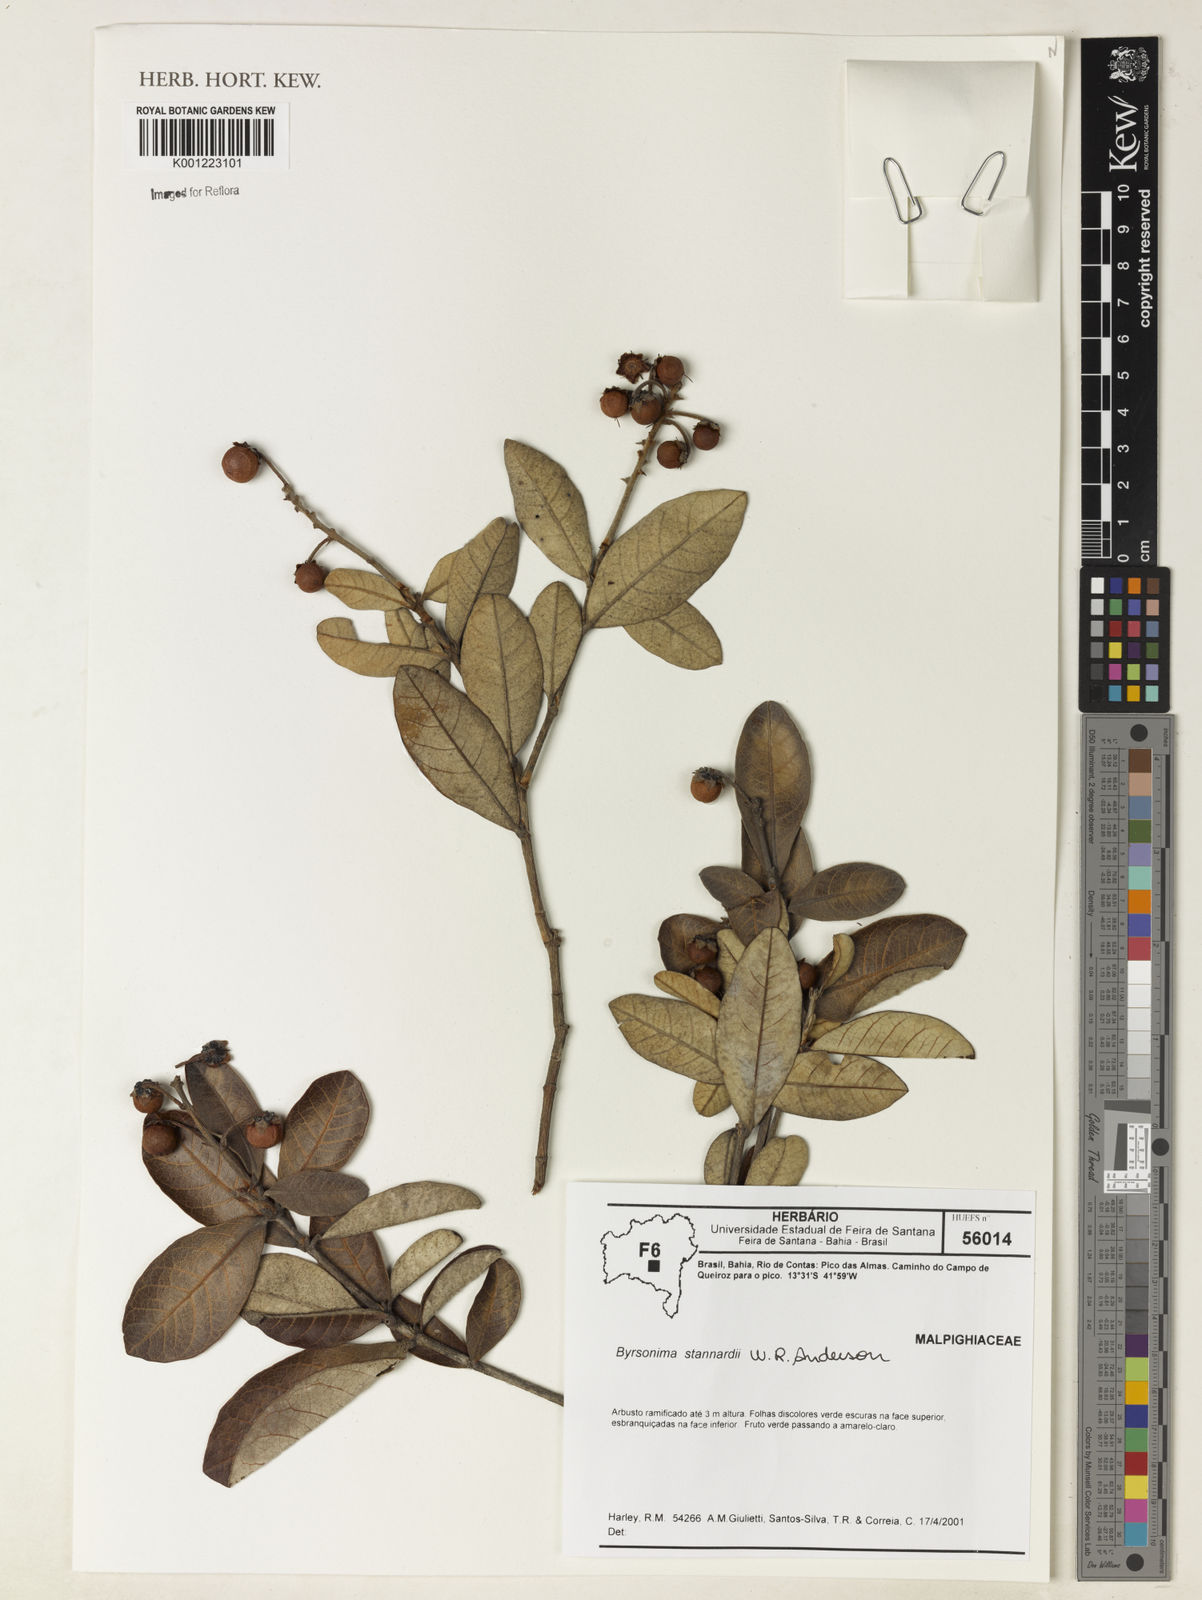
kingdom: Plantae
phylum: Tracheophyta
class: Magnoliopsida
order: Malpighiales
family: Malpighiaceae
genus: Byrsonima
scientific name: Byrsonima stannardii
